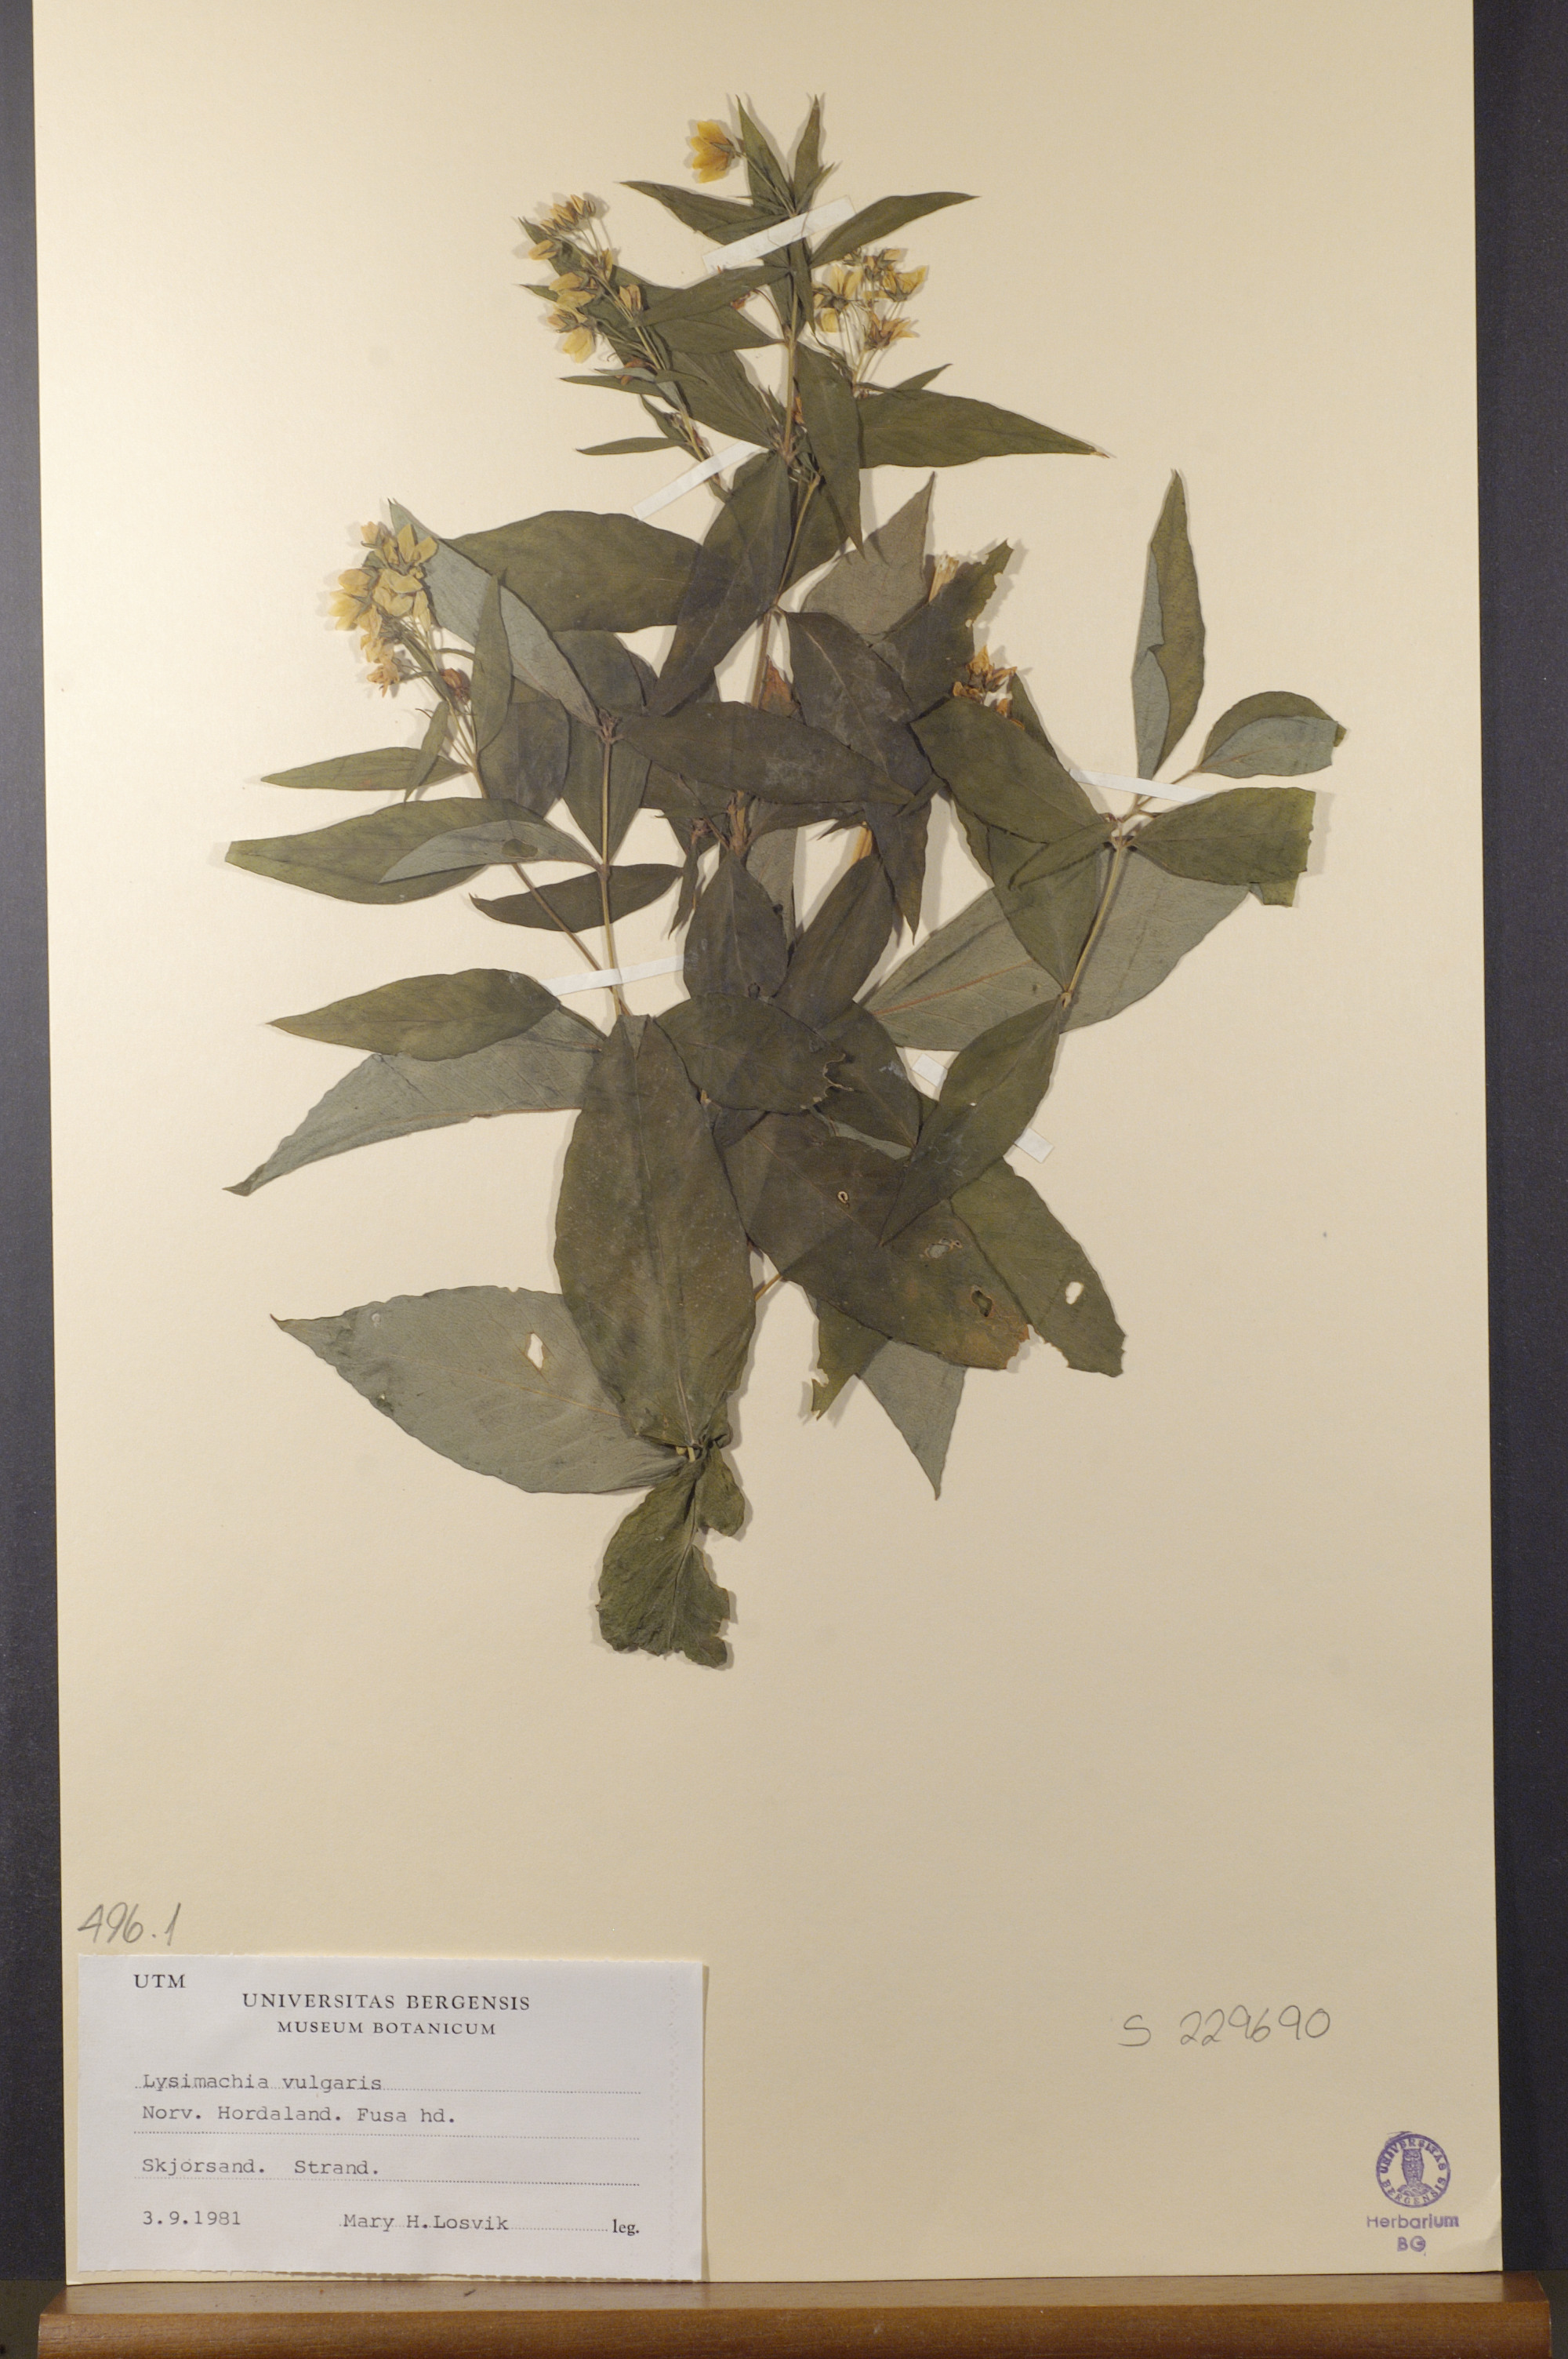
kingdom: Plantae
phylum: Tracheophyta
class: Magnoliopsida
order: Ericales
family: Primulaceae
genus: Lysimachia
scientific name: Lysimachia vulgaris
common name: Yellow loosestrife
